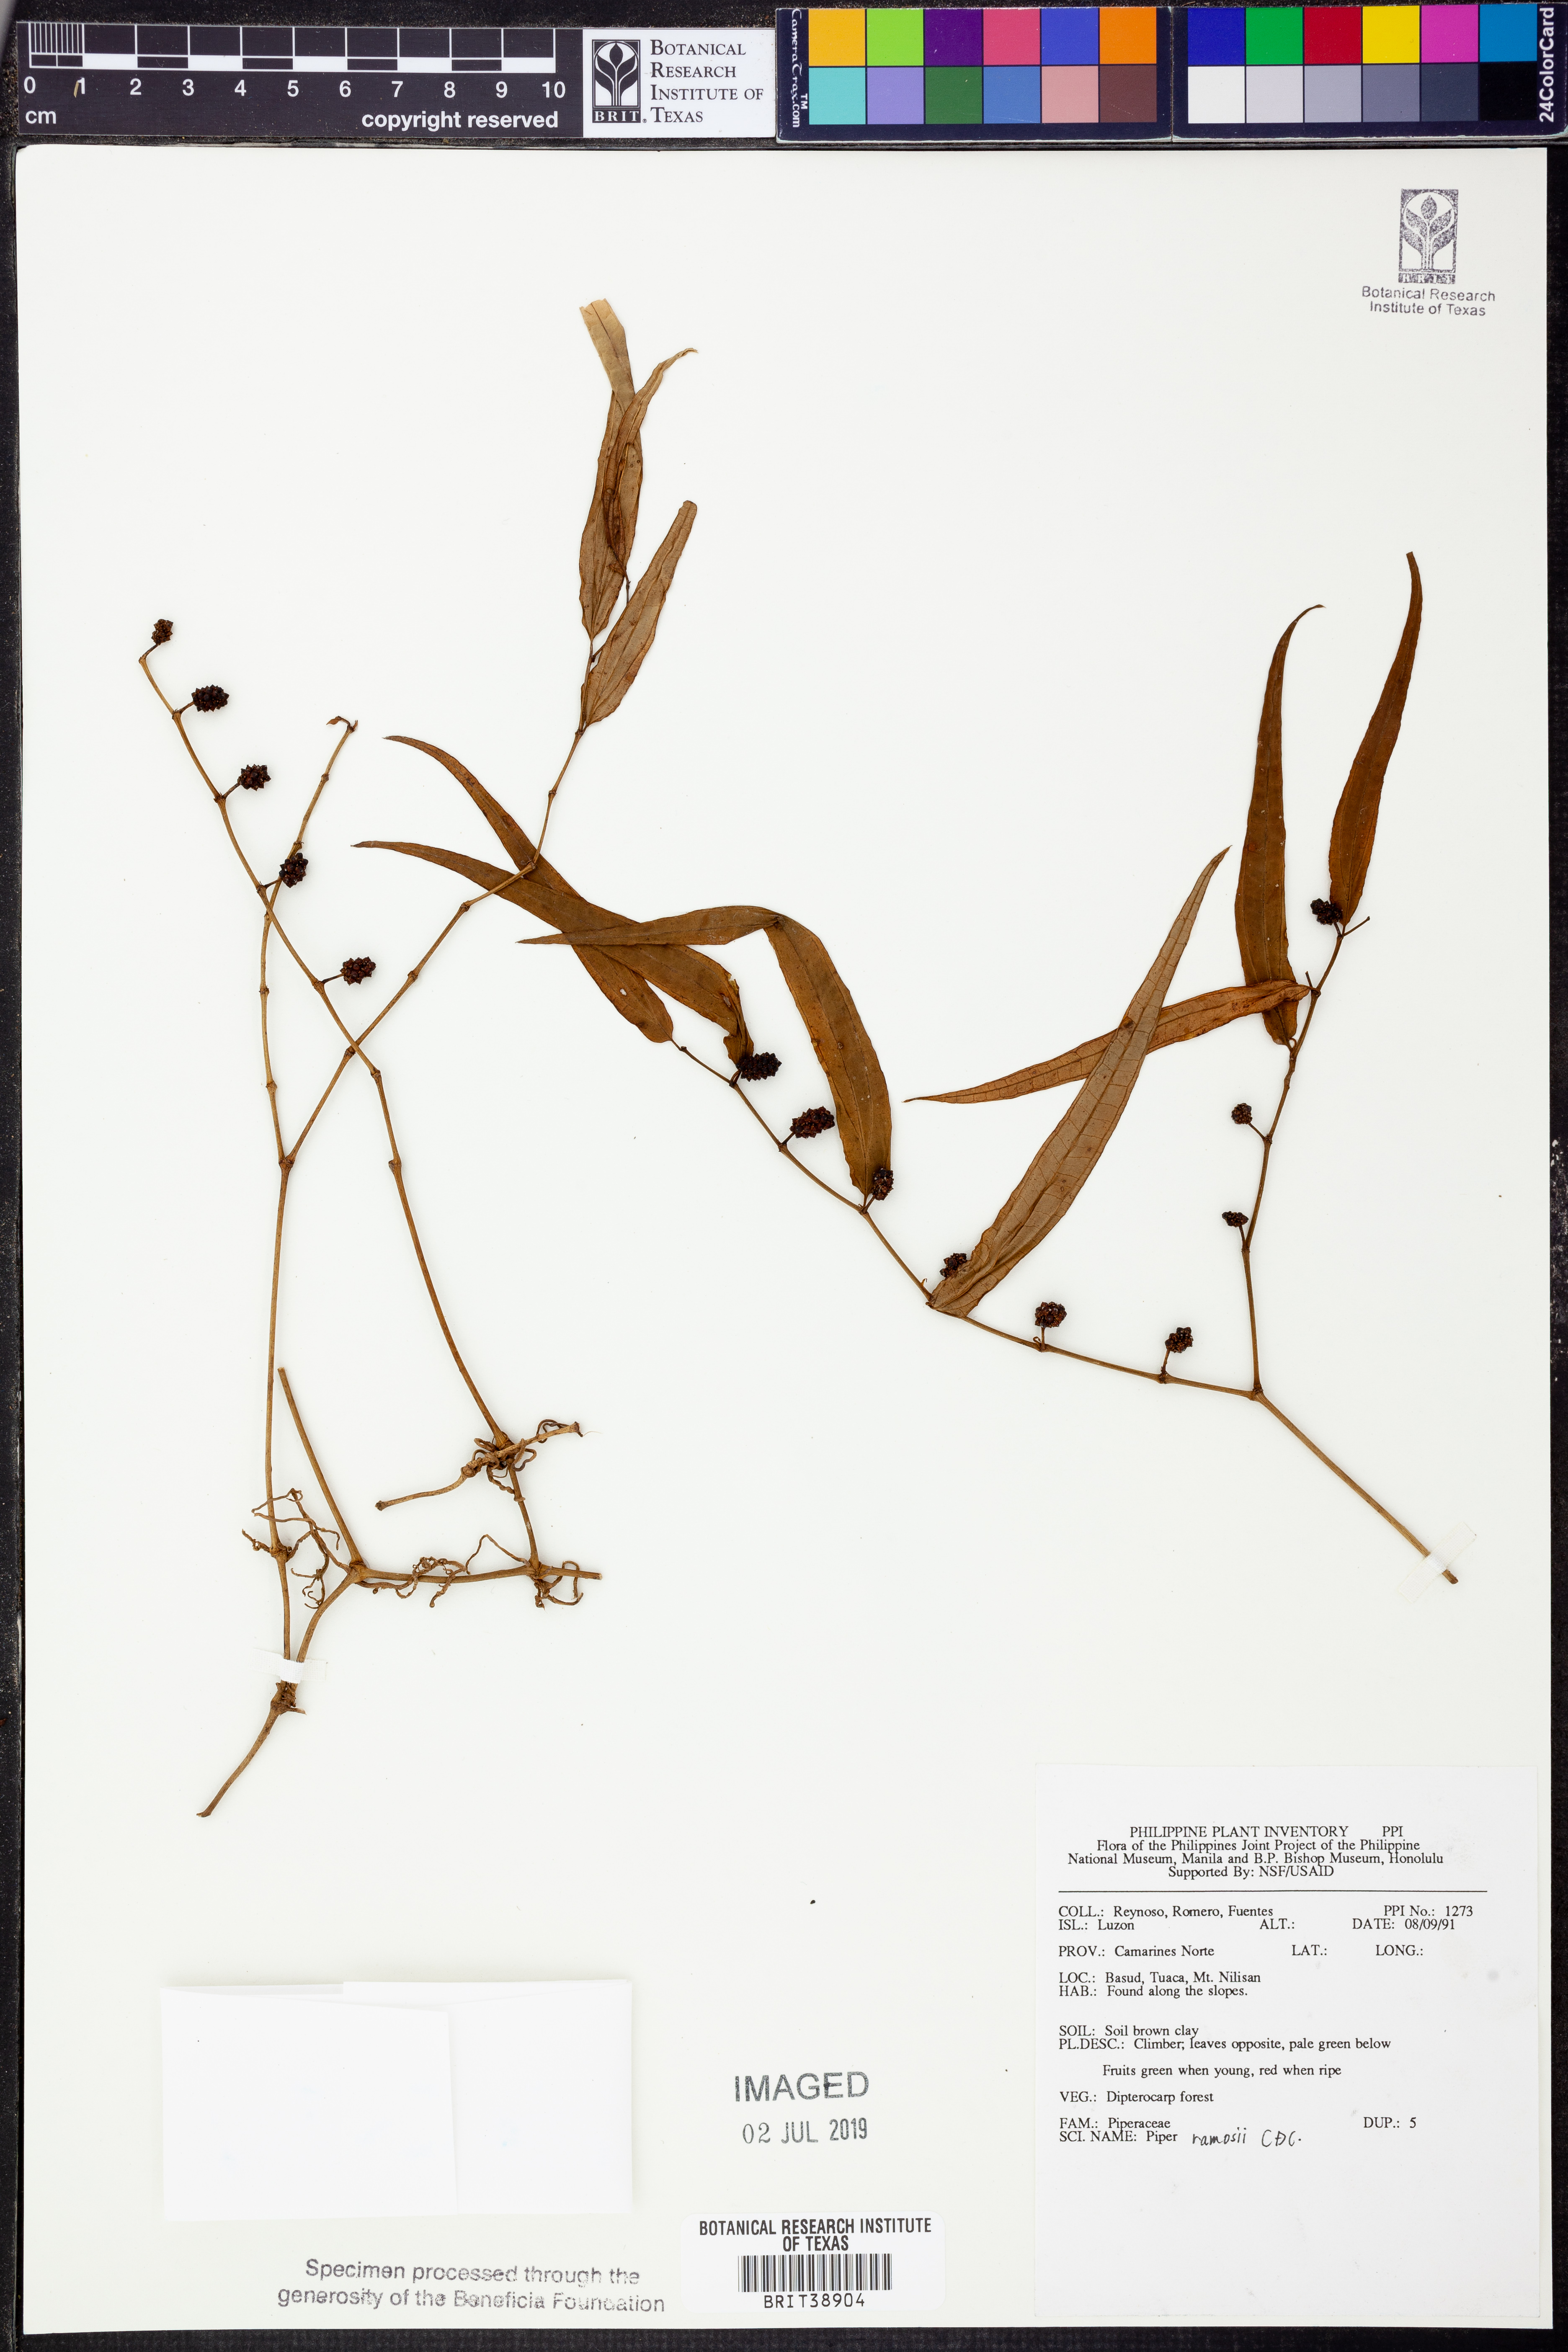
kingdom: Plantae
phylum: Tracheophyta
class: Magnoliopsida
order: Piperales
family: Piperaceae
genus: Piper
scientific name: Piper ramosii
